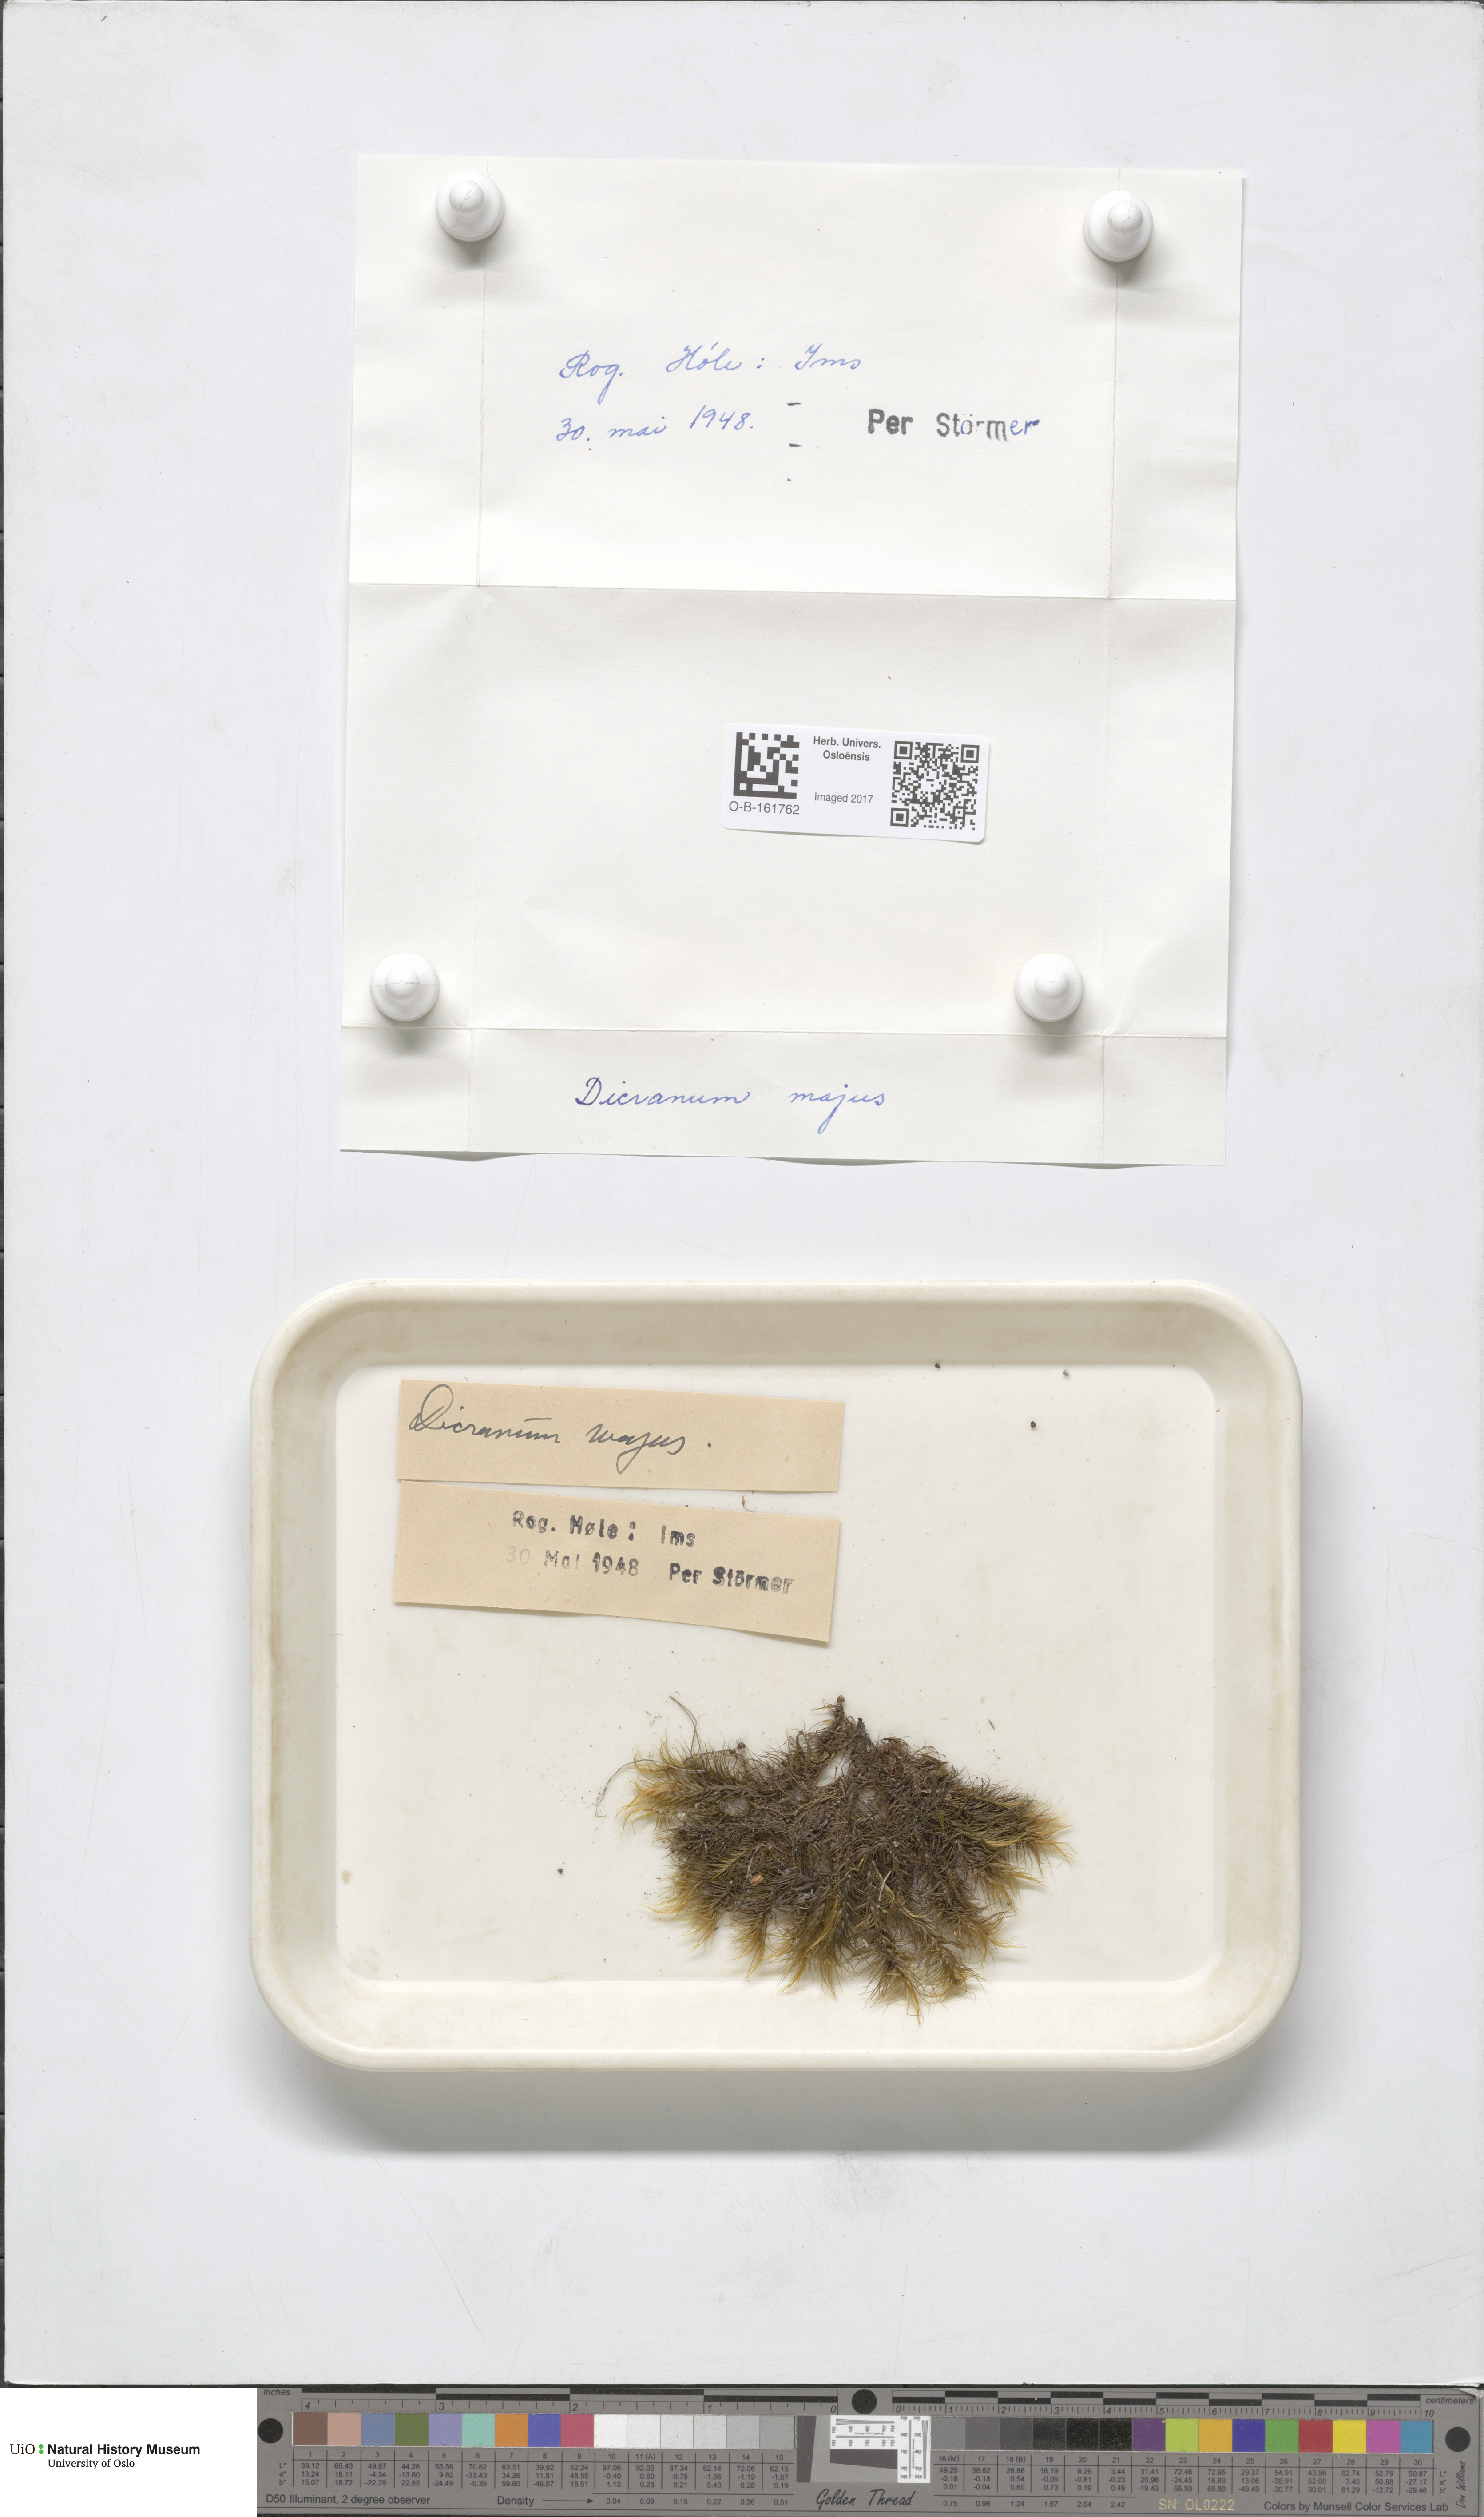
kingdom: Plantae
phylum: Bryophyta
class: Bryopsida
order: Dicranales
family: Dicranaceae
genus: Dicranum
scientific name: Dicranum majus
